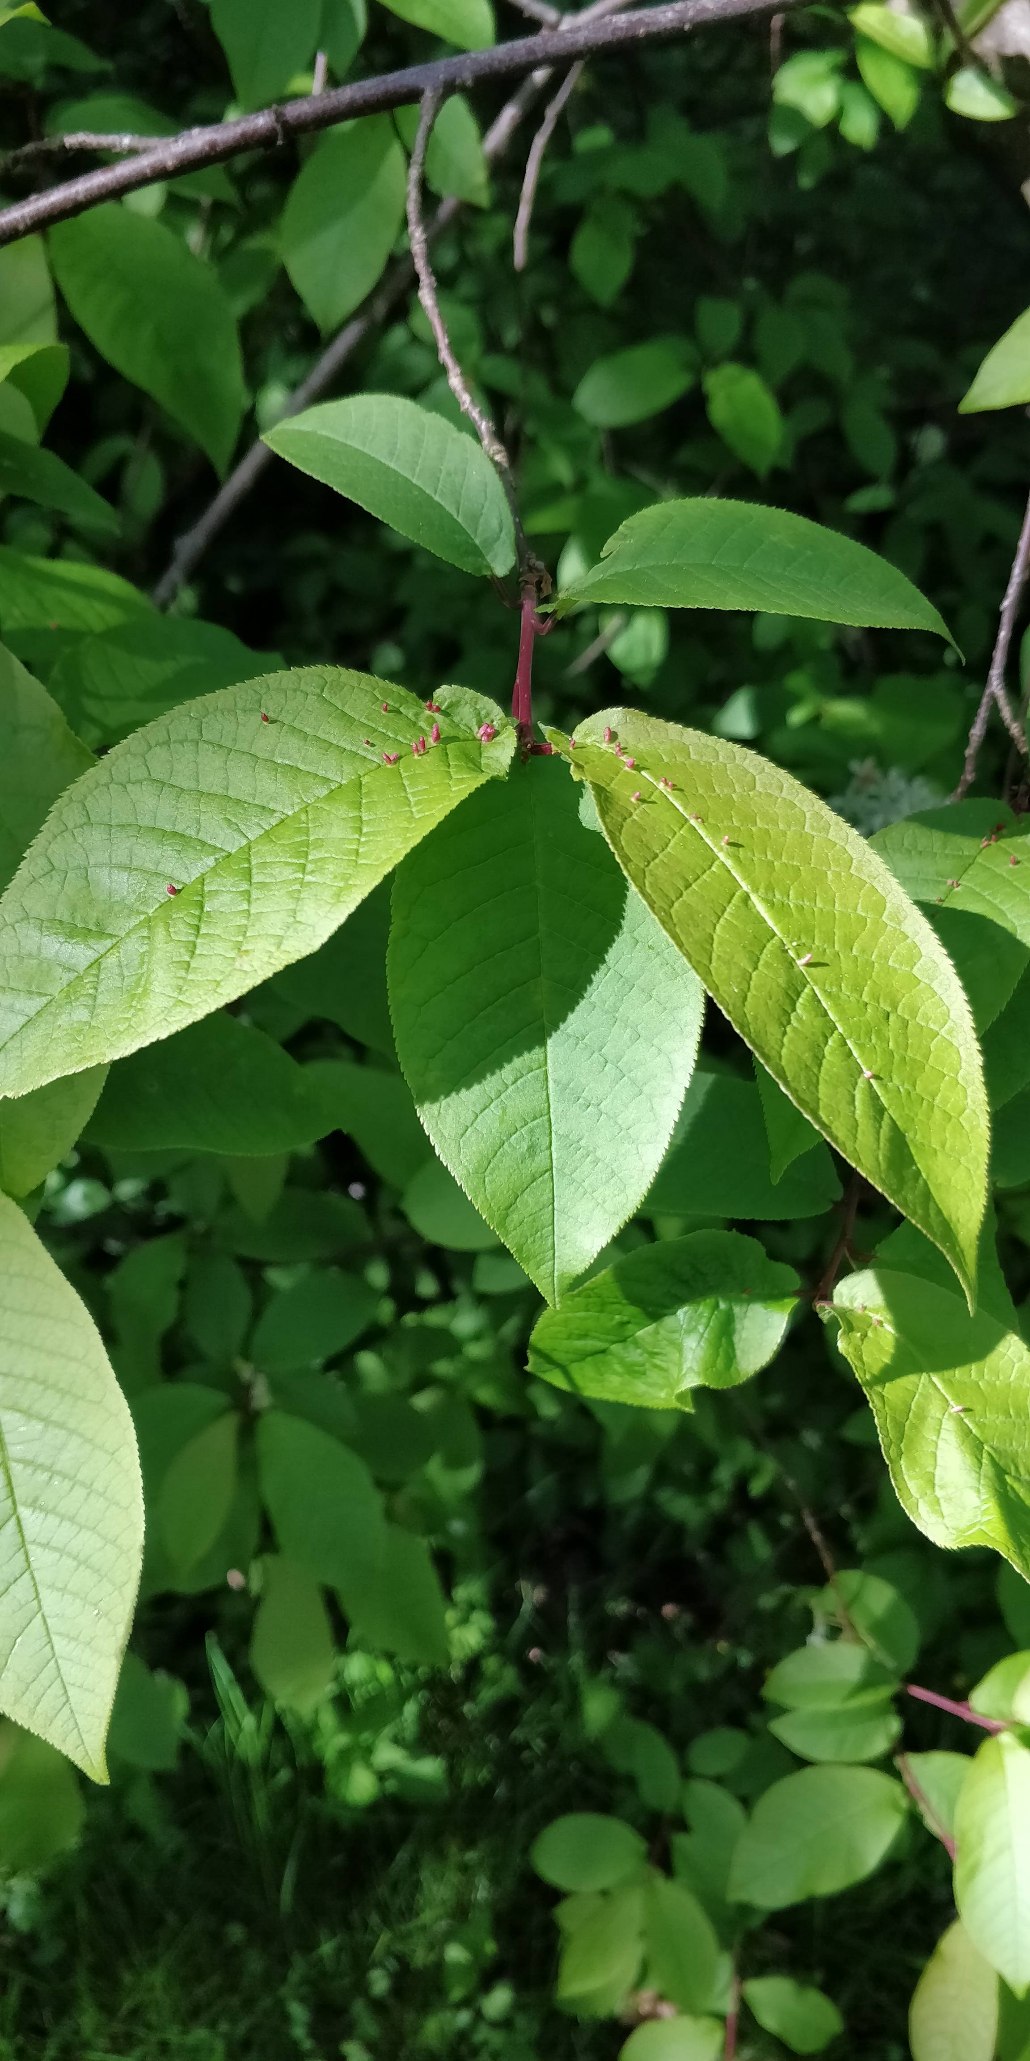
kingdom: Plantae
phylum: Tracheophyta
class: Magnoliopsida
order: Rosales
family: Rosaceae
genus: Prunus
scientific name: Prunus padus
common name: Almindelig hæg
